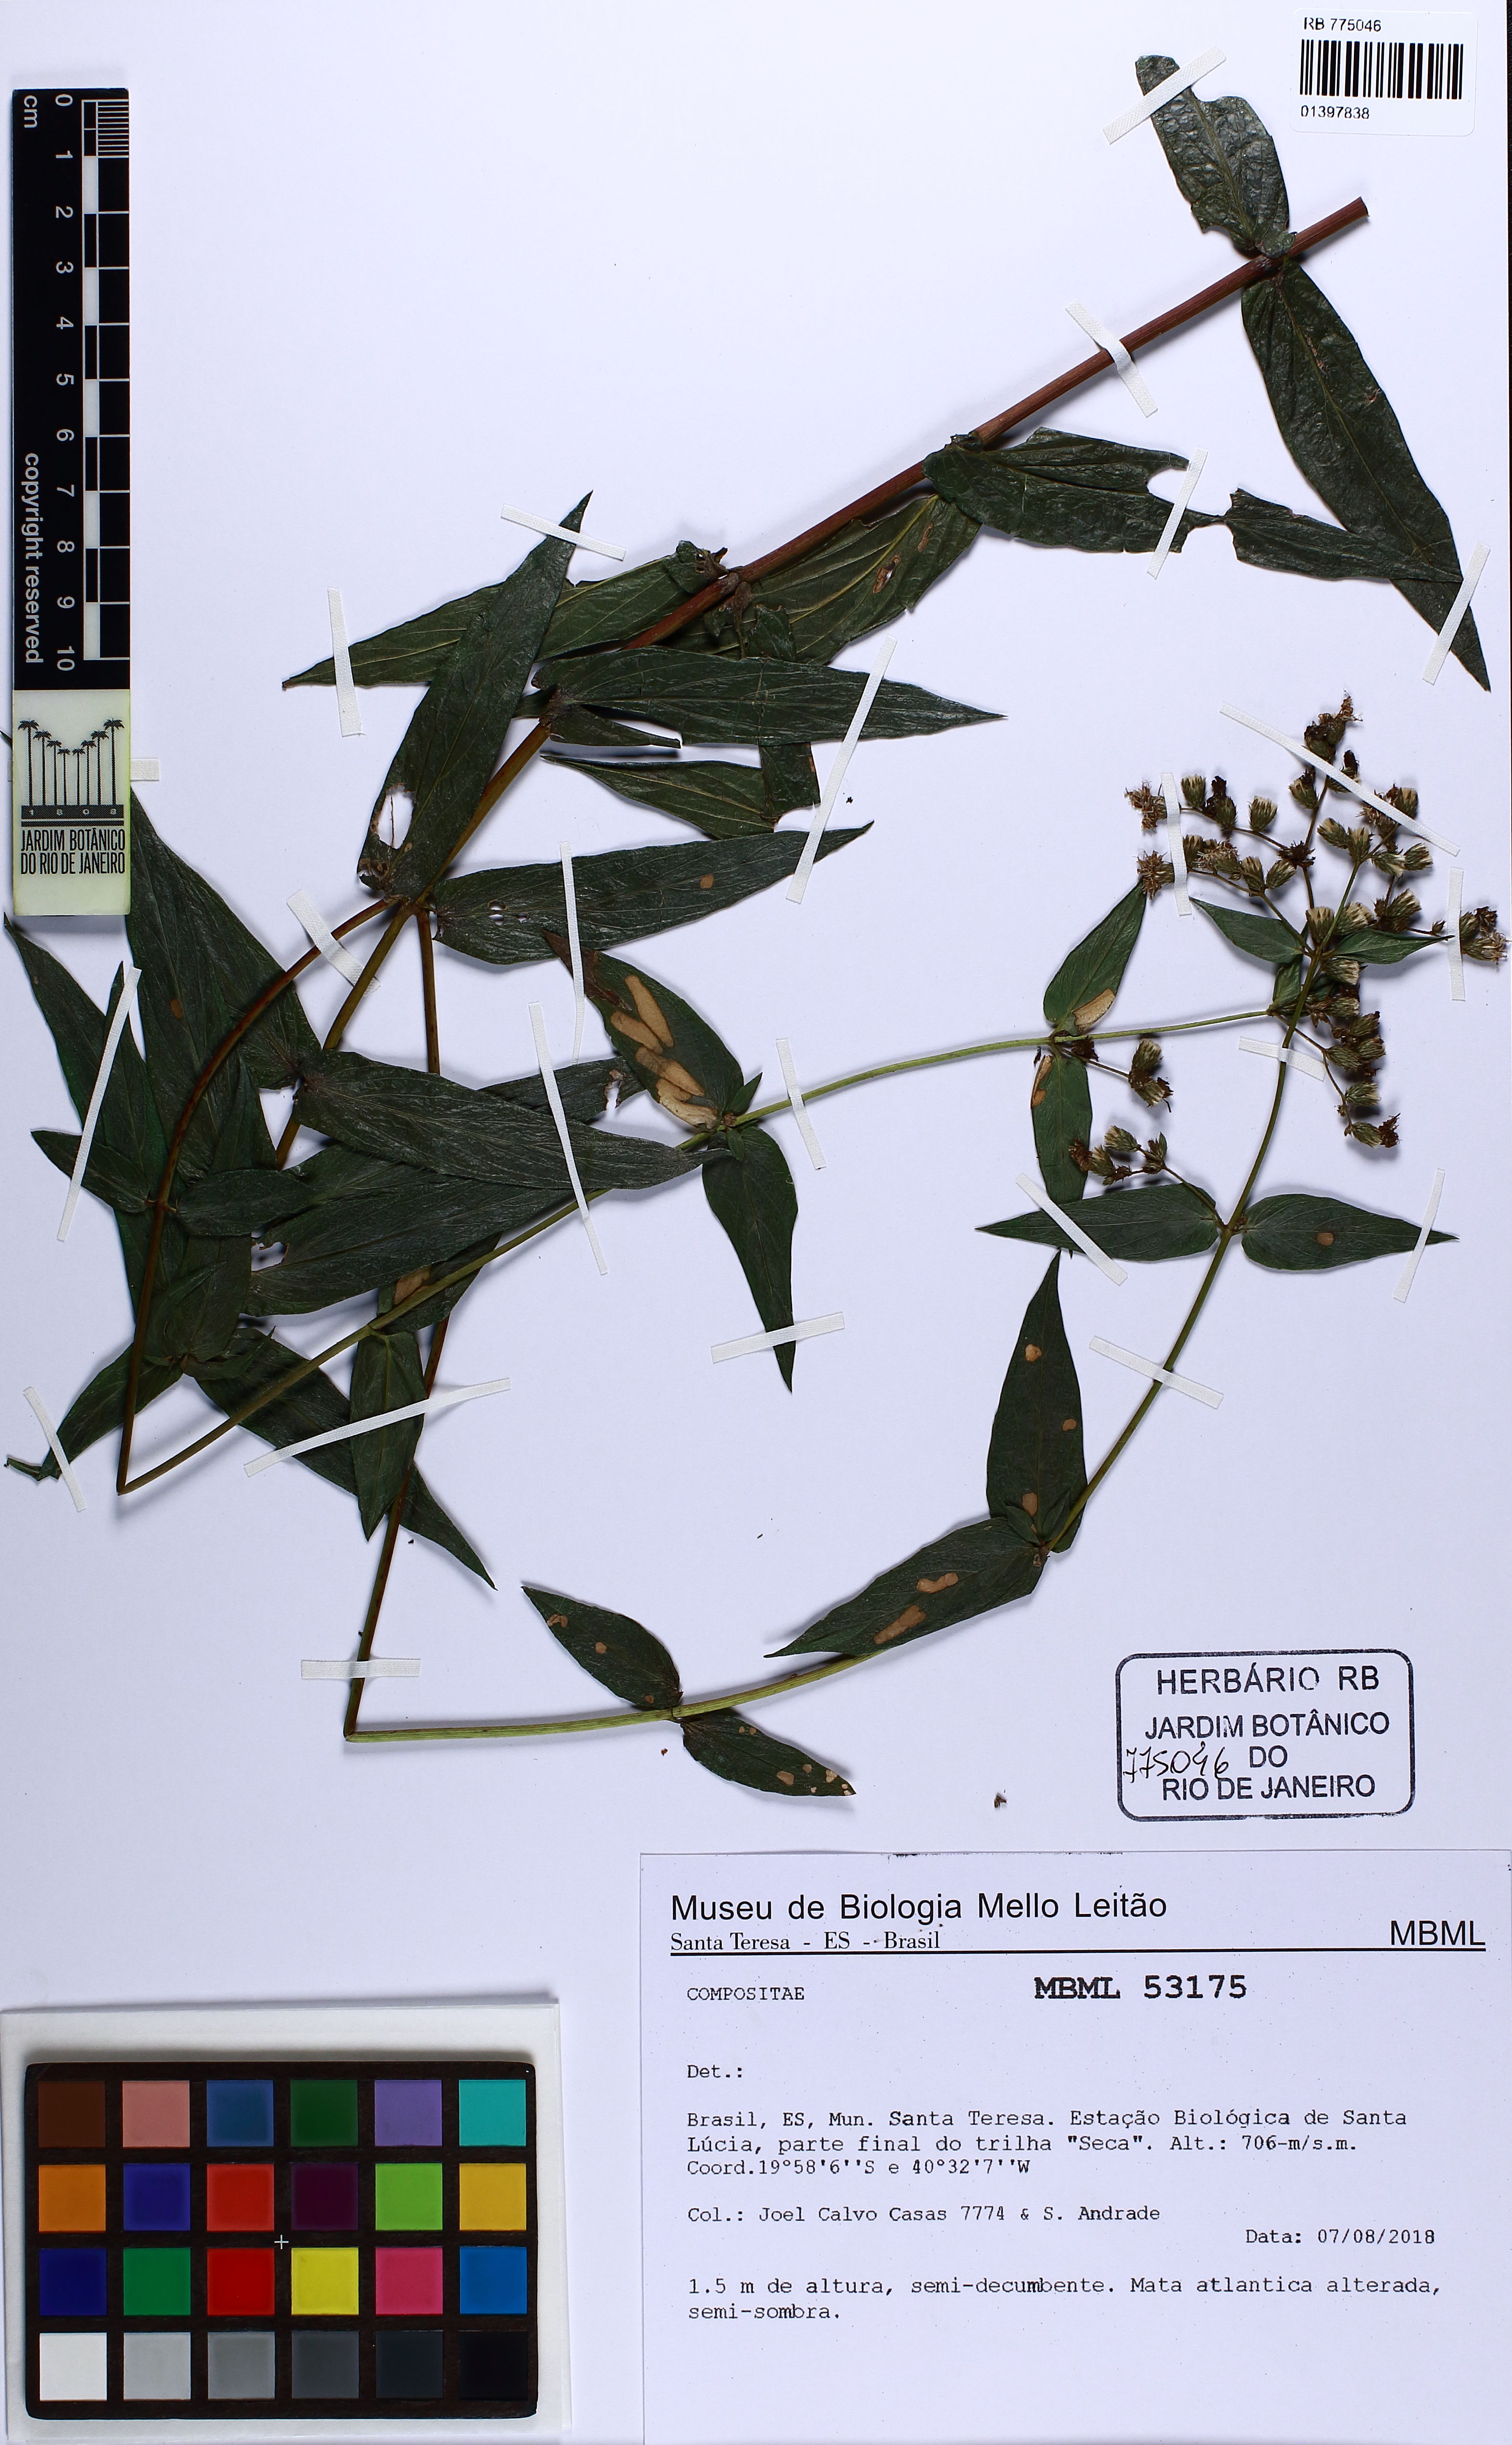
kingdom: Plantae
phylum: Tracheophyta
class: Magnoliopsida
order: Asterales
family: Asteraceae
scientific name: Asteraceae
